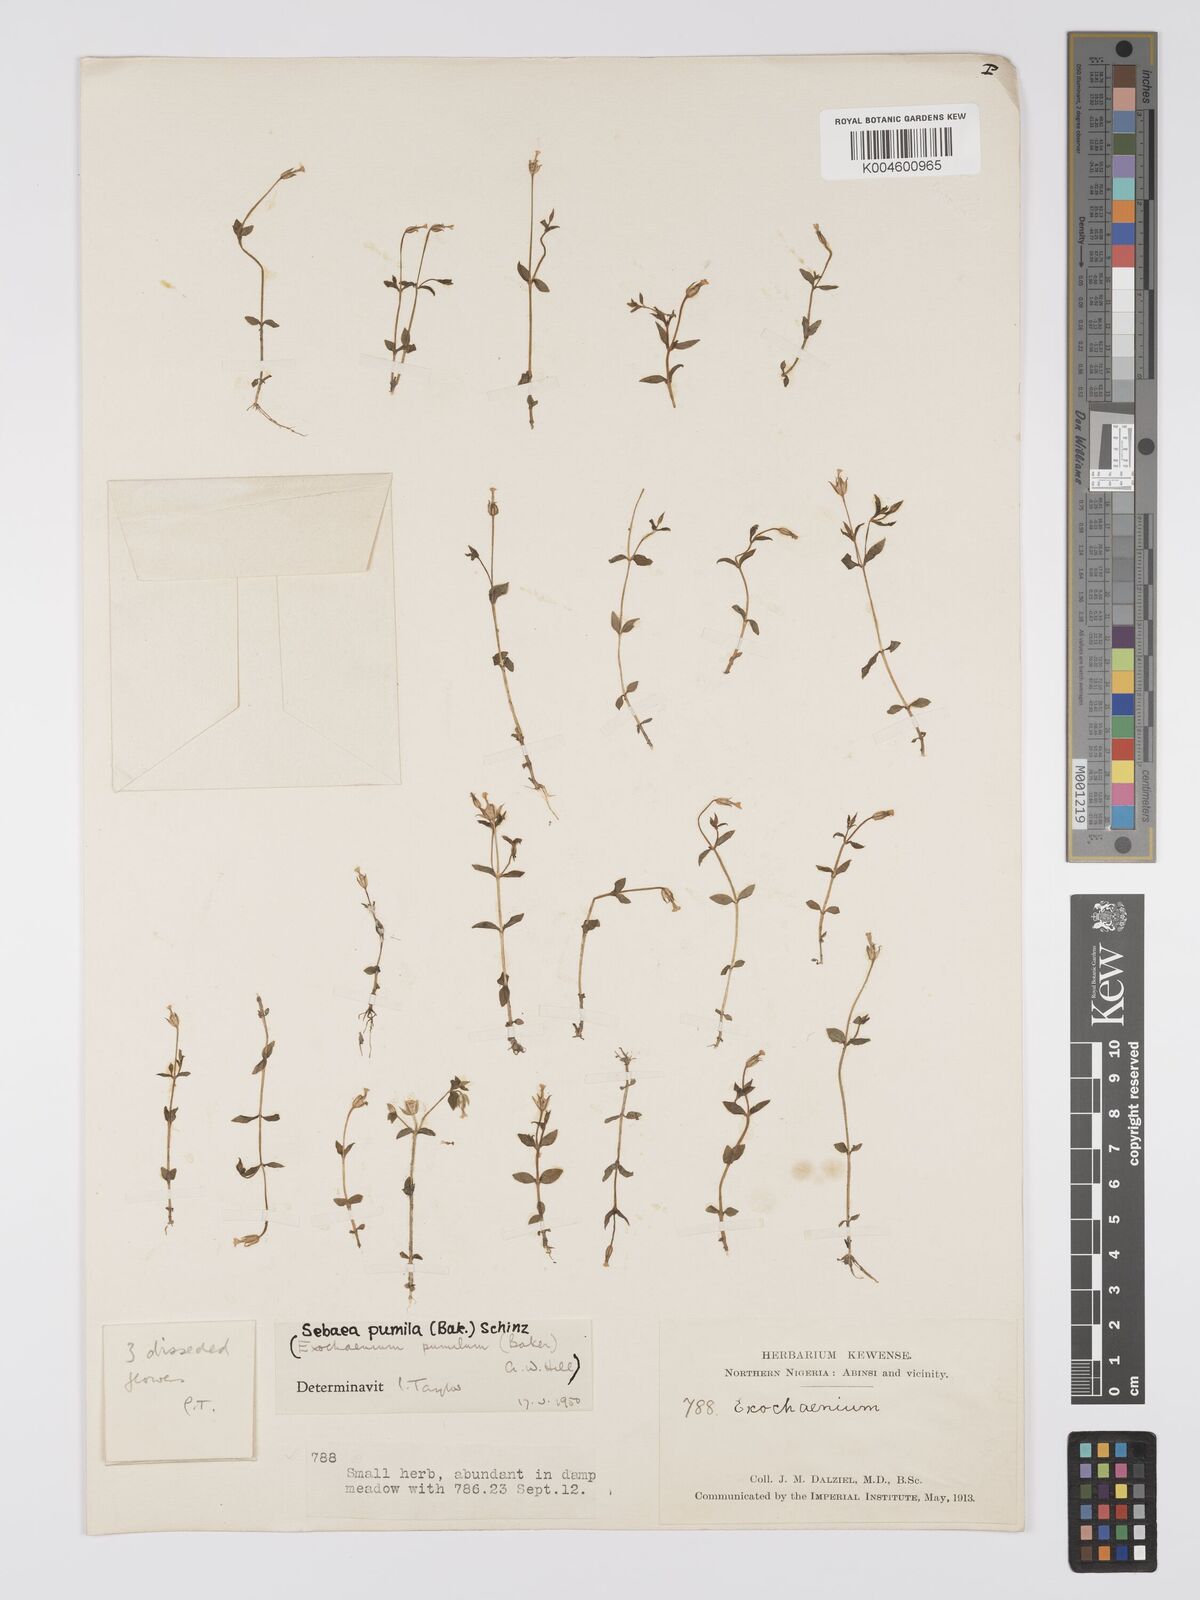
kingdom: Plantae
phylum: Tracheophyta
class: Magnoliopsida
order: Gentianales
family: Gentianaceae
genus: Exochaenium
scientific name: Exochaenium pumilum
